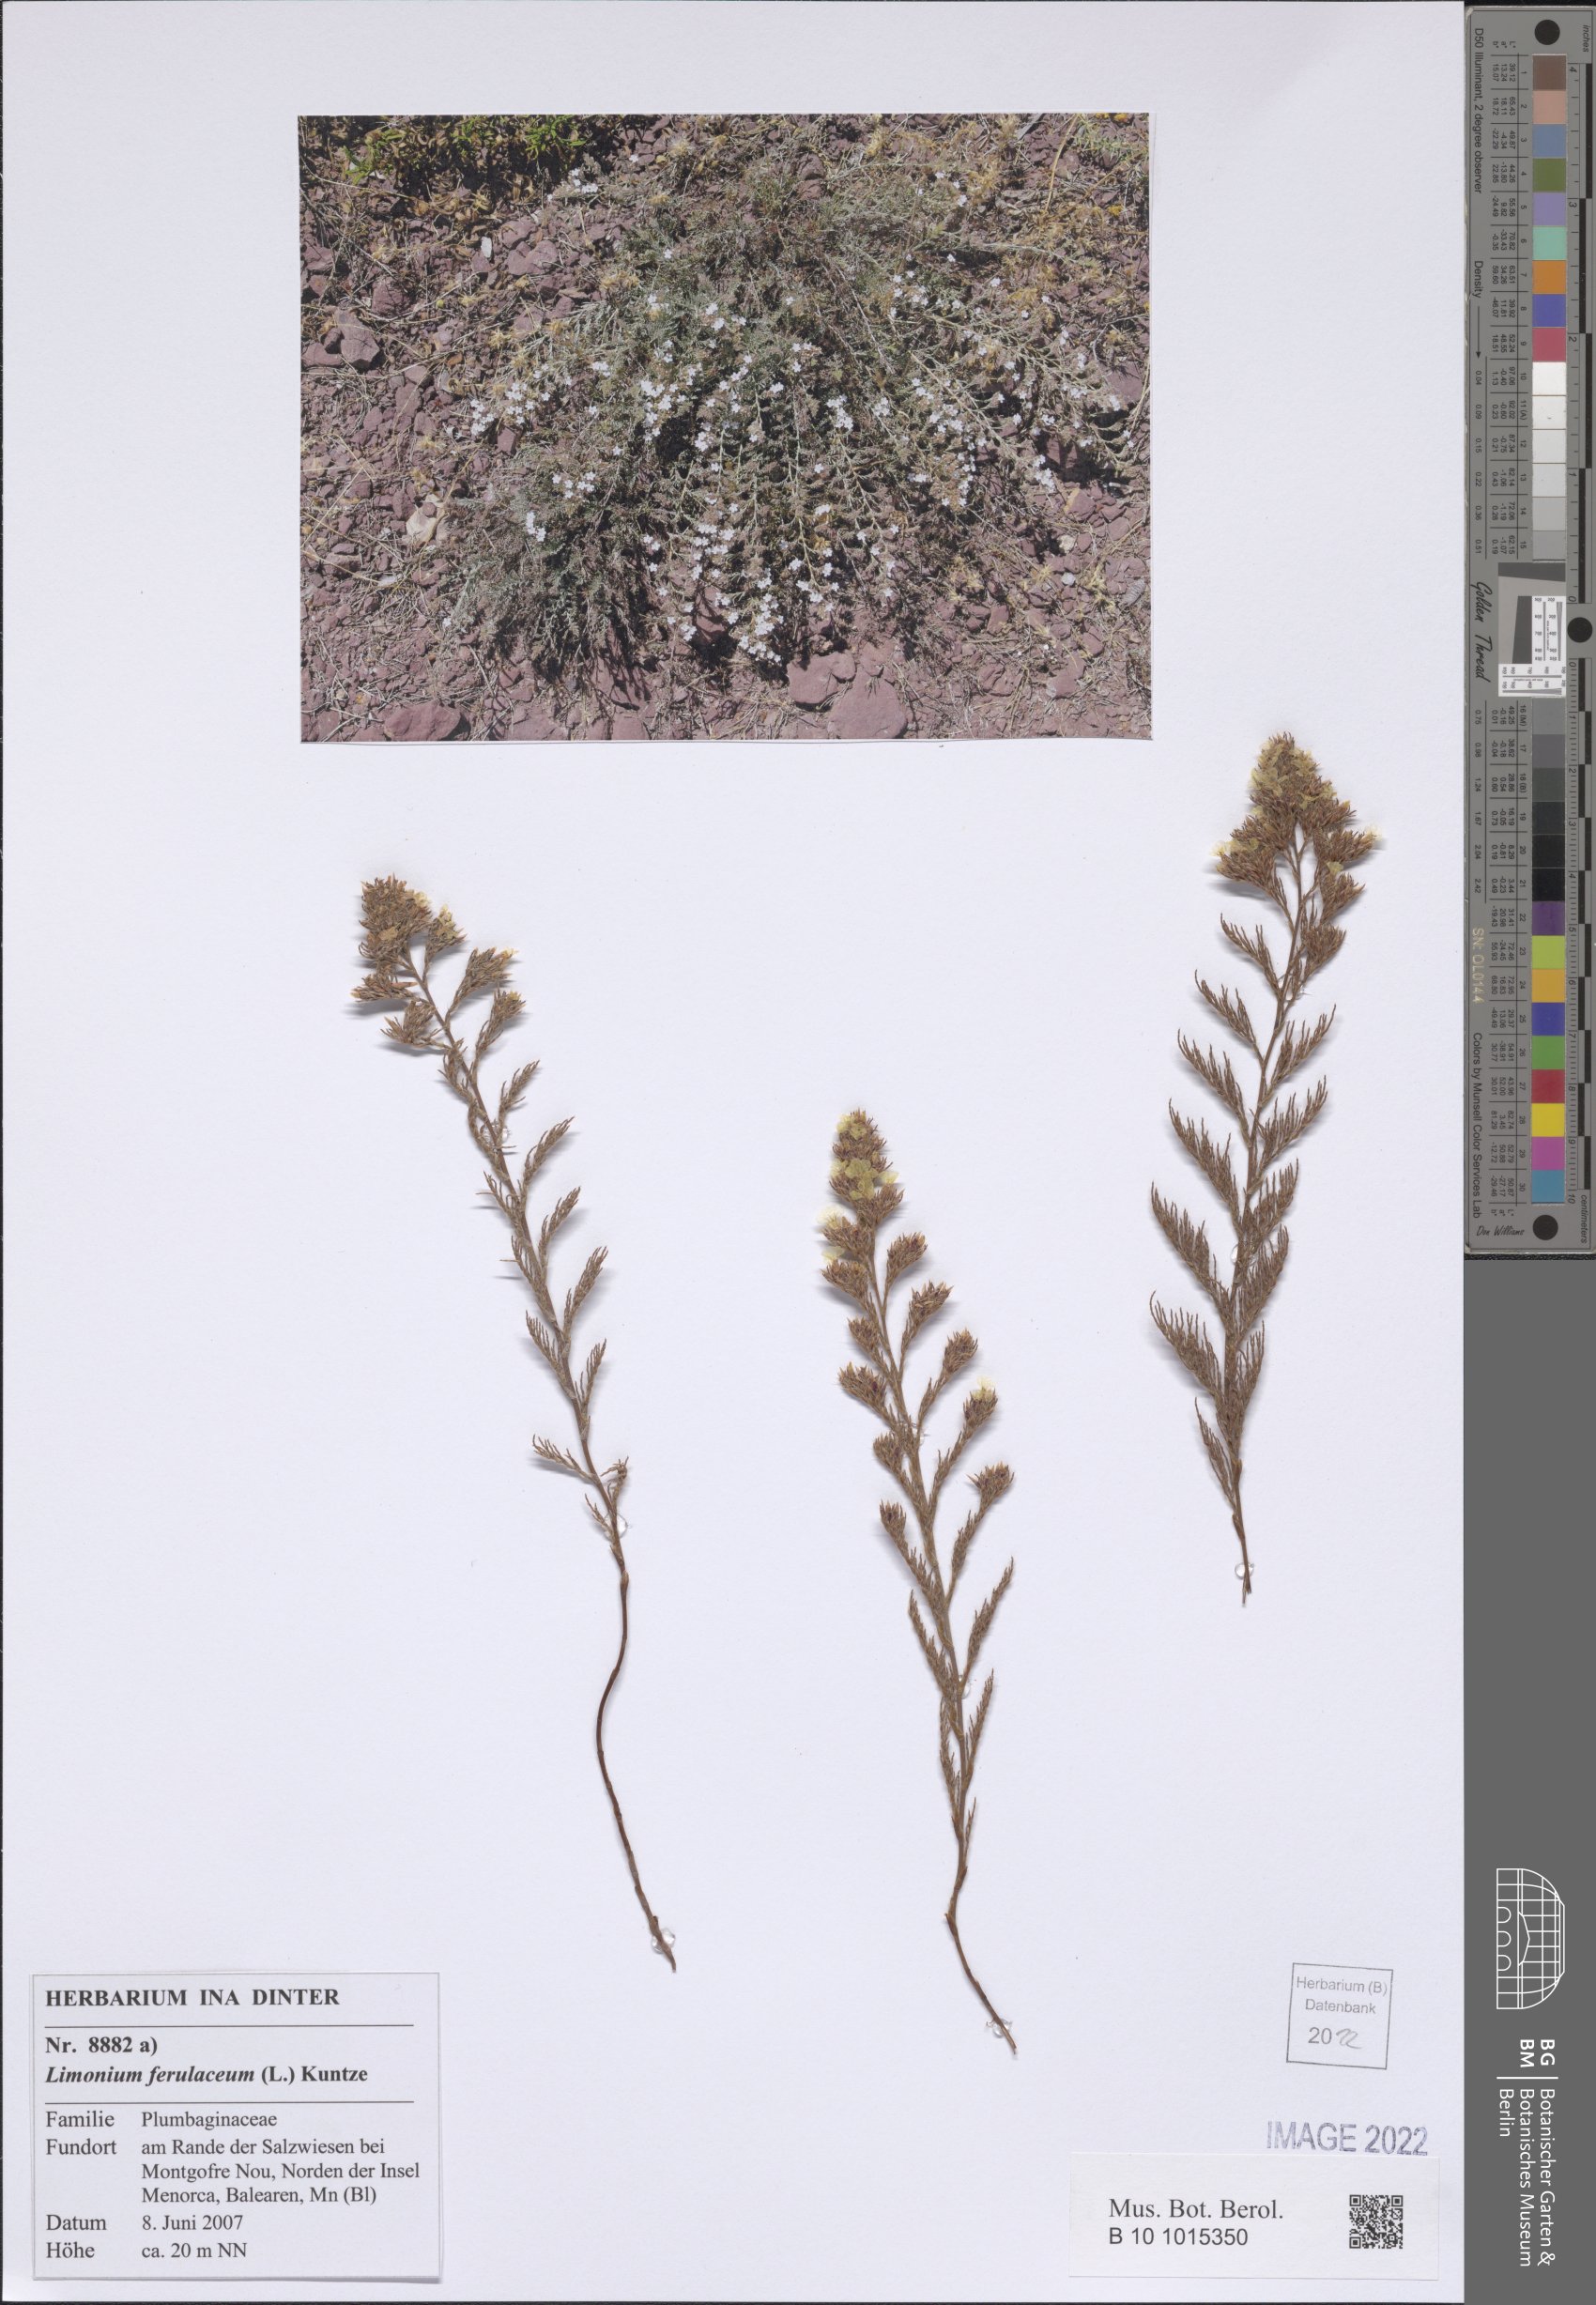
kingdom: Plantae
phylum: Tracheophyta
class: Magnoliopsida
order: Caryophyllales
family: Plumbaginaceae
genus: Myriolimon
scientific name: Myriolimon ferulaceum
